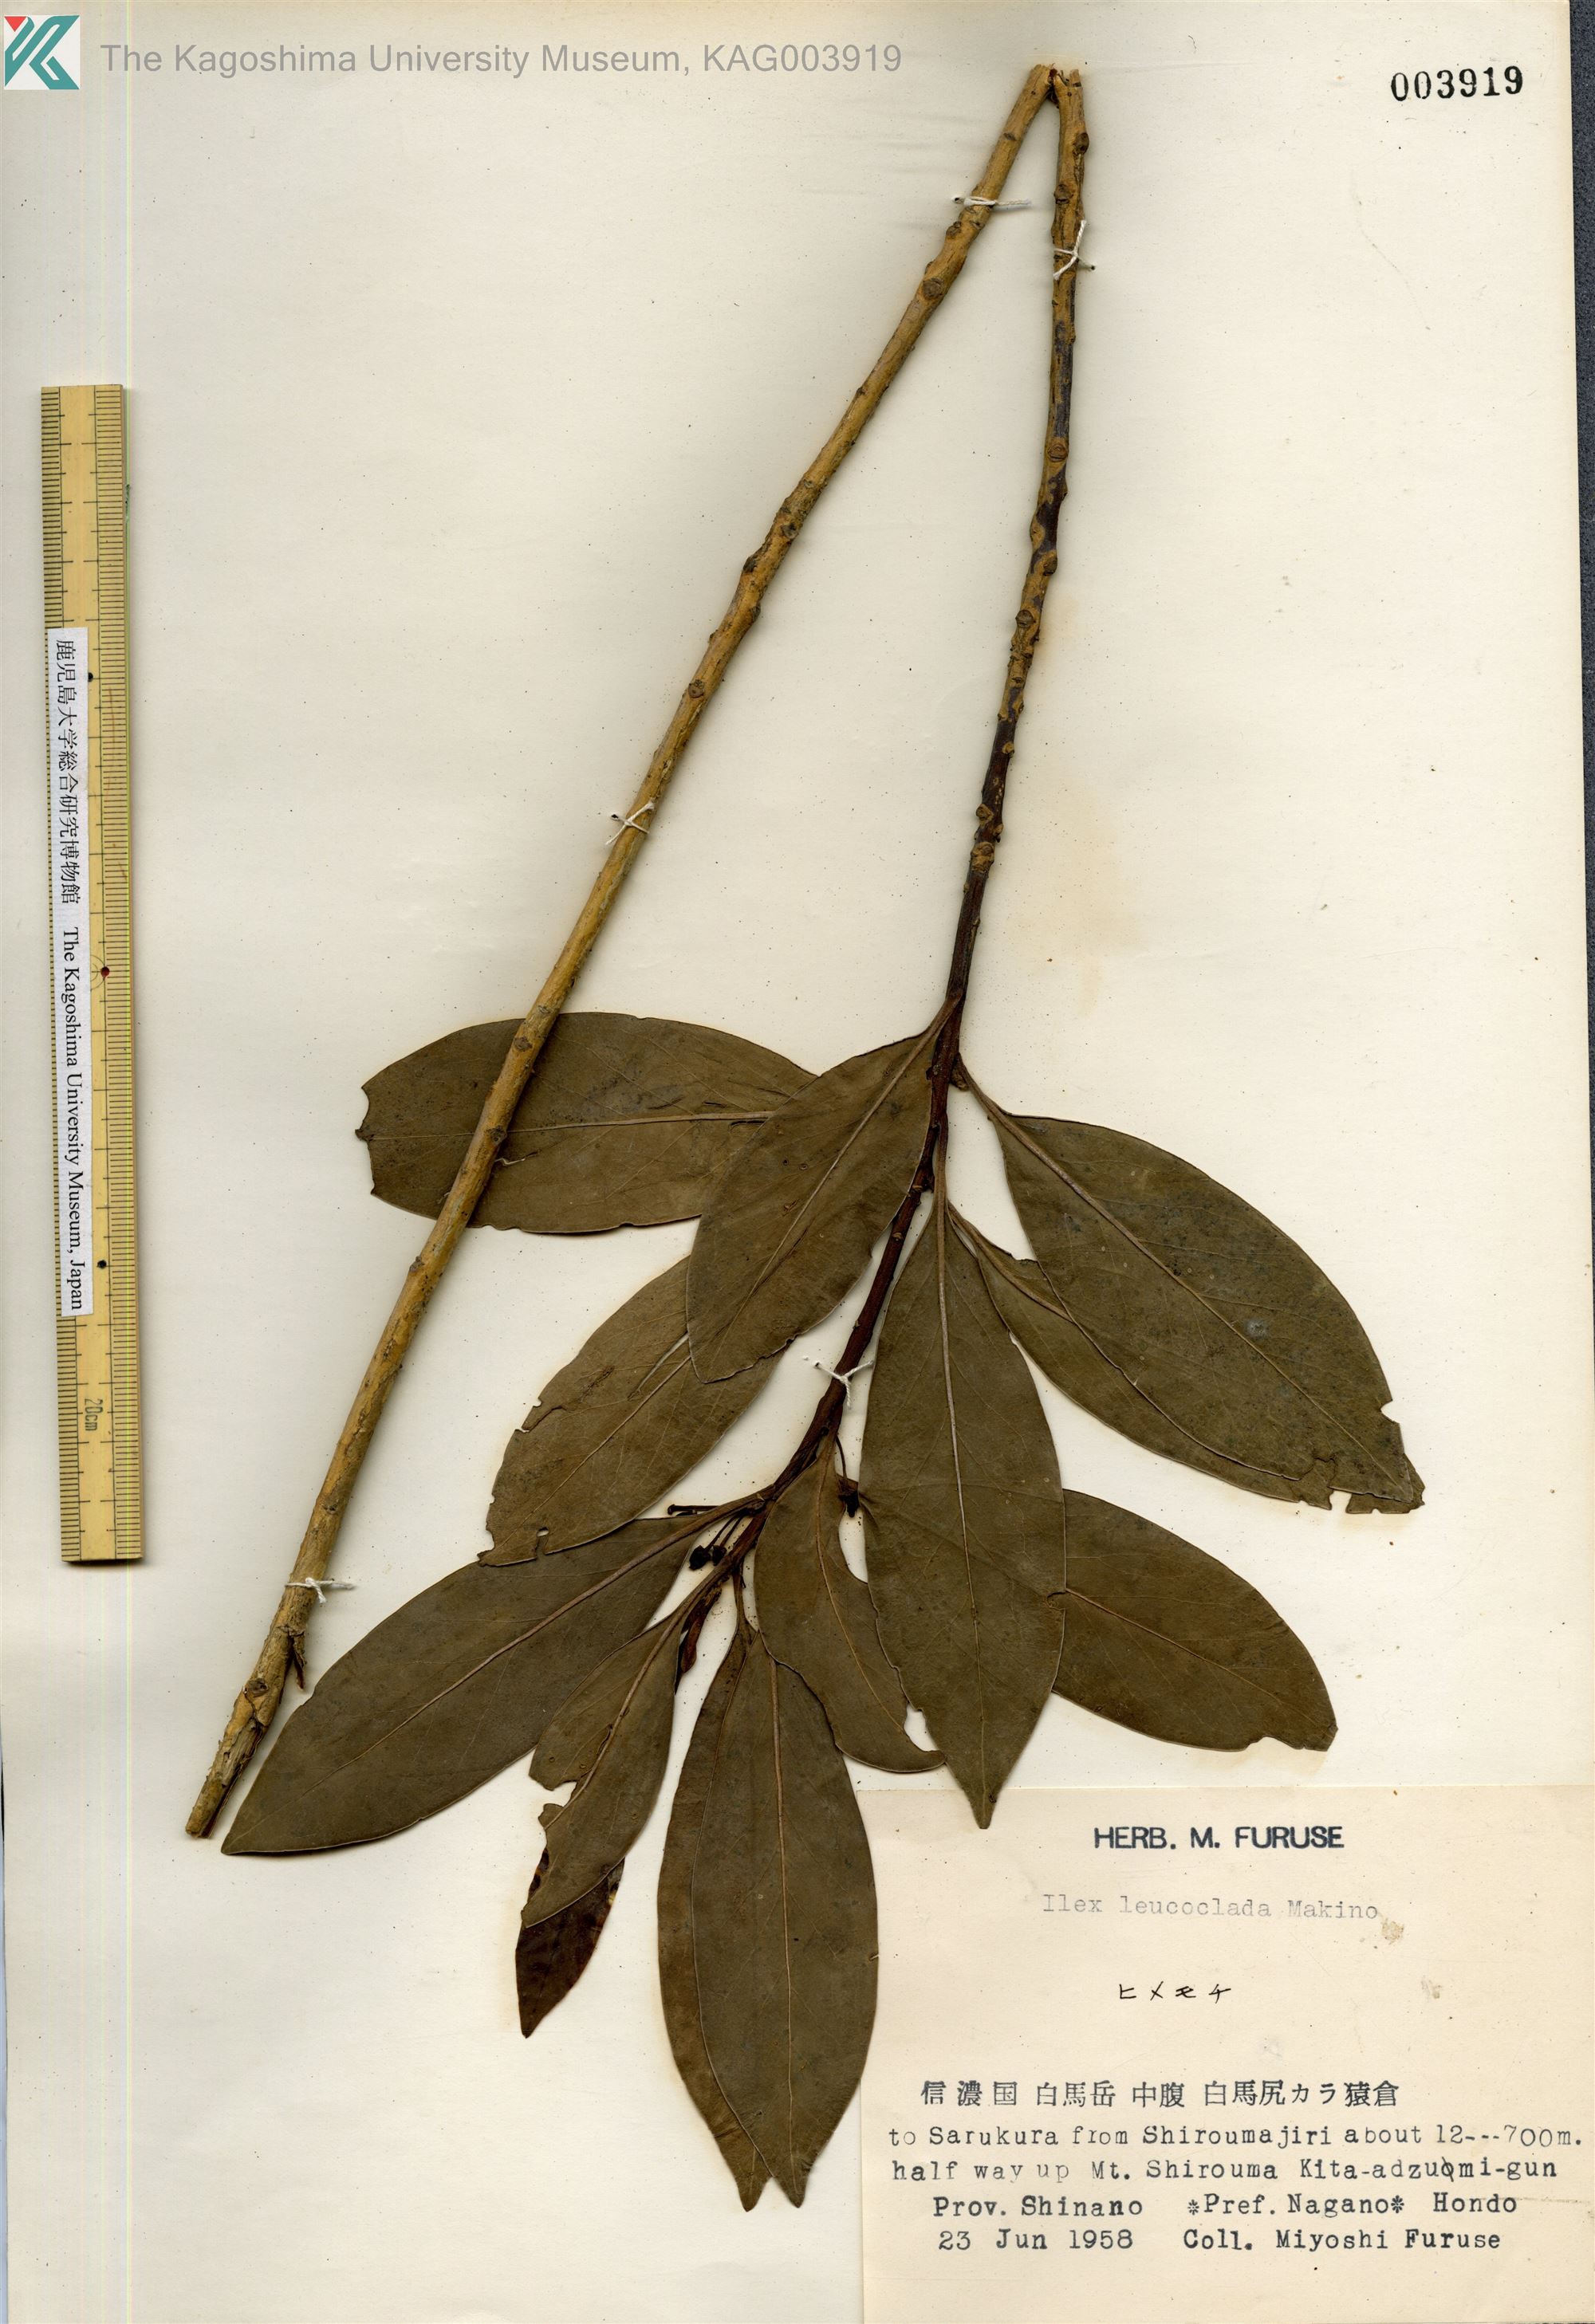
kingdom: Plantae
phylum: Tracheophyta
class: Magnoliopsida
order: Aquifoliales
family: Aquifoliaceae
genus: Ilex
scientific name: Ilex leucoclada
